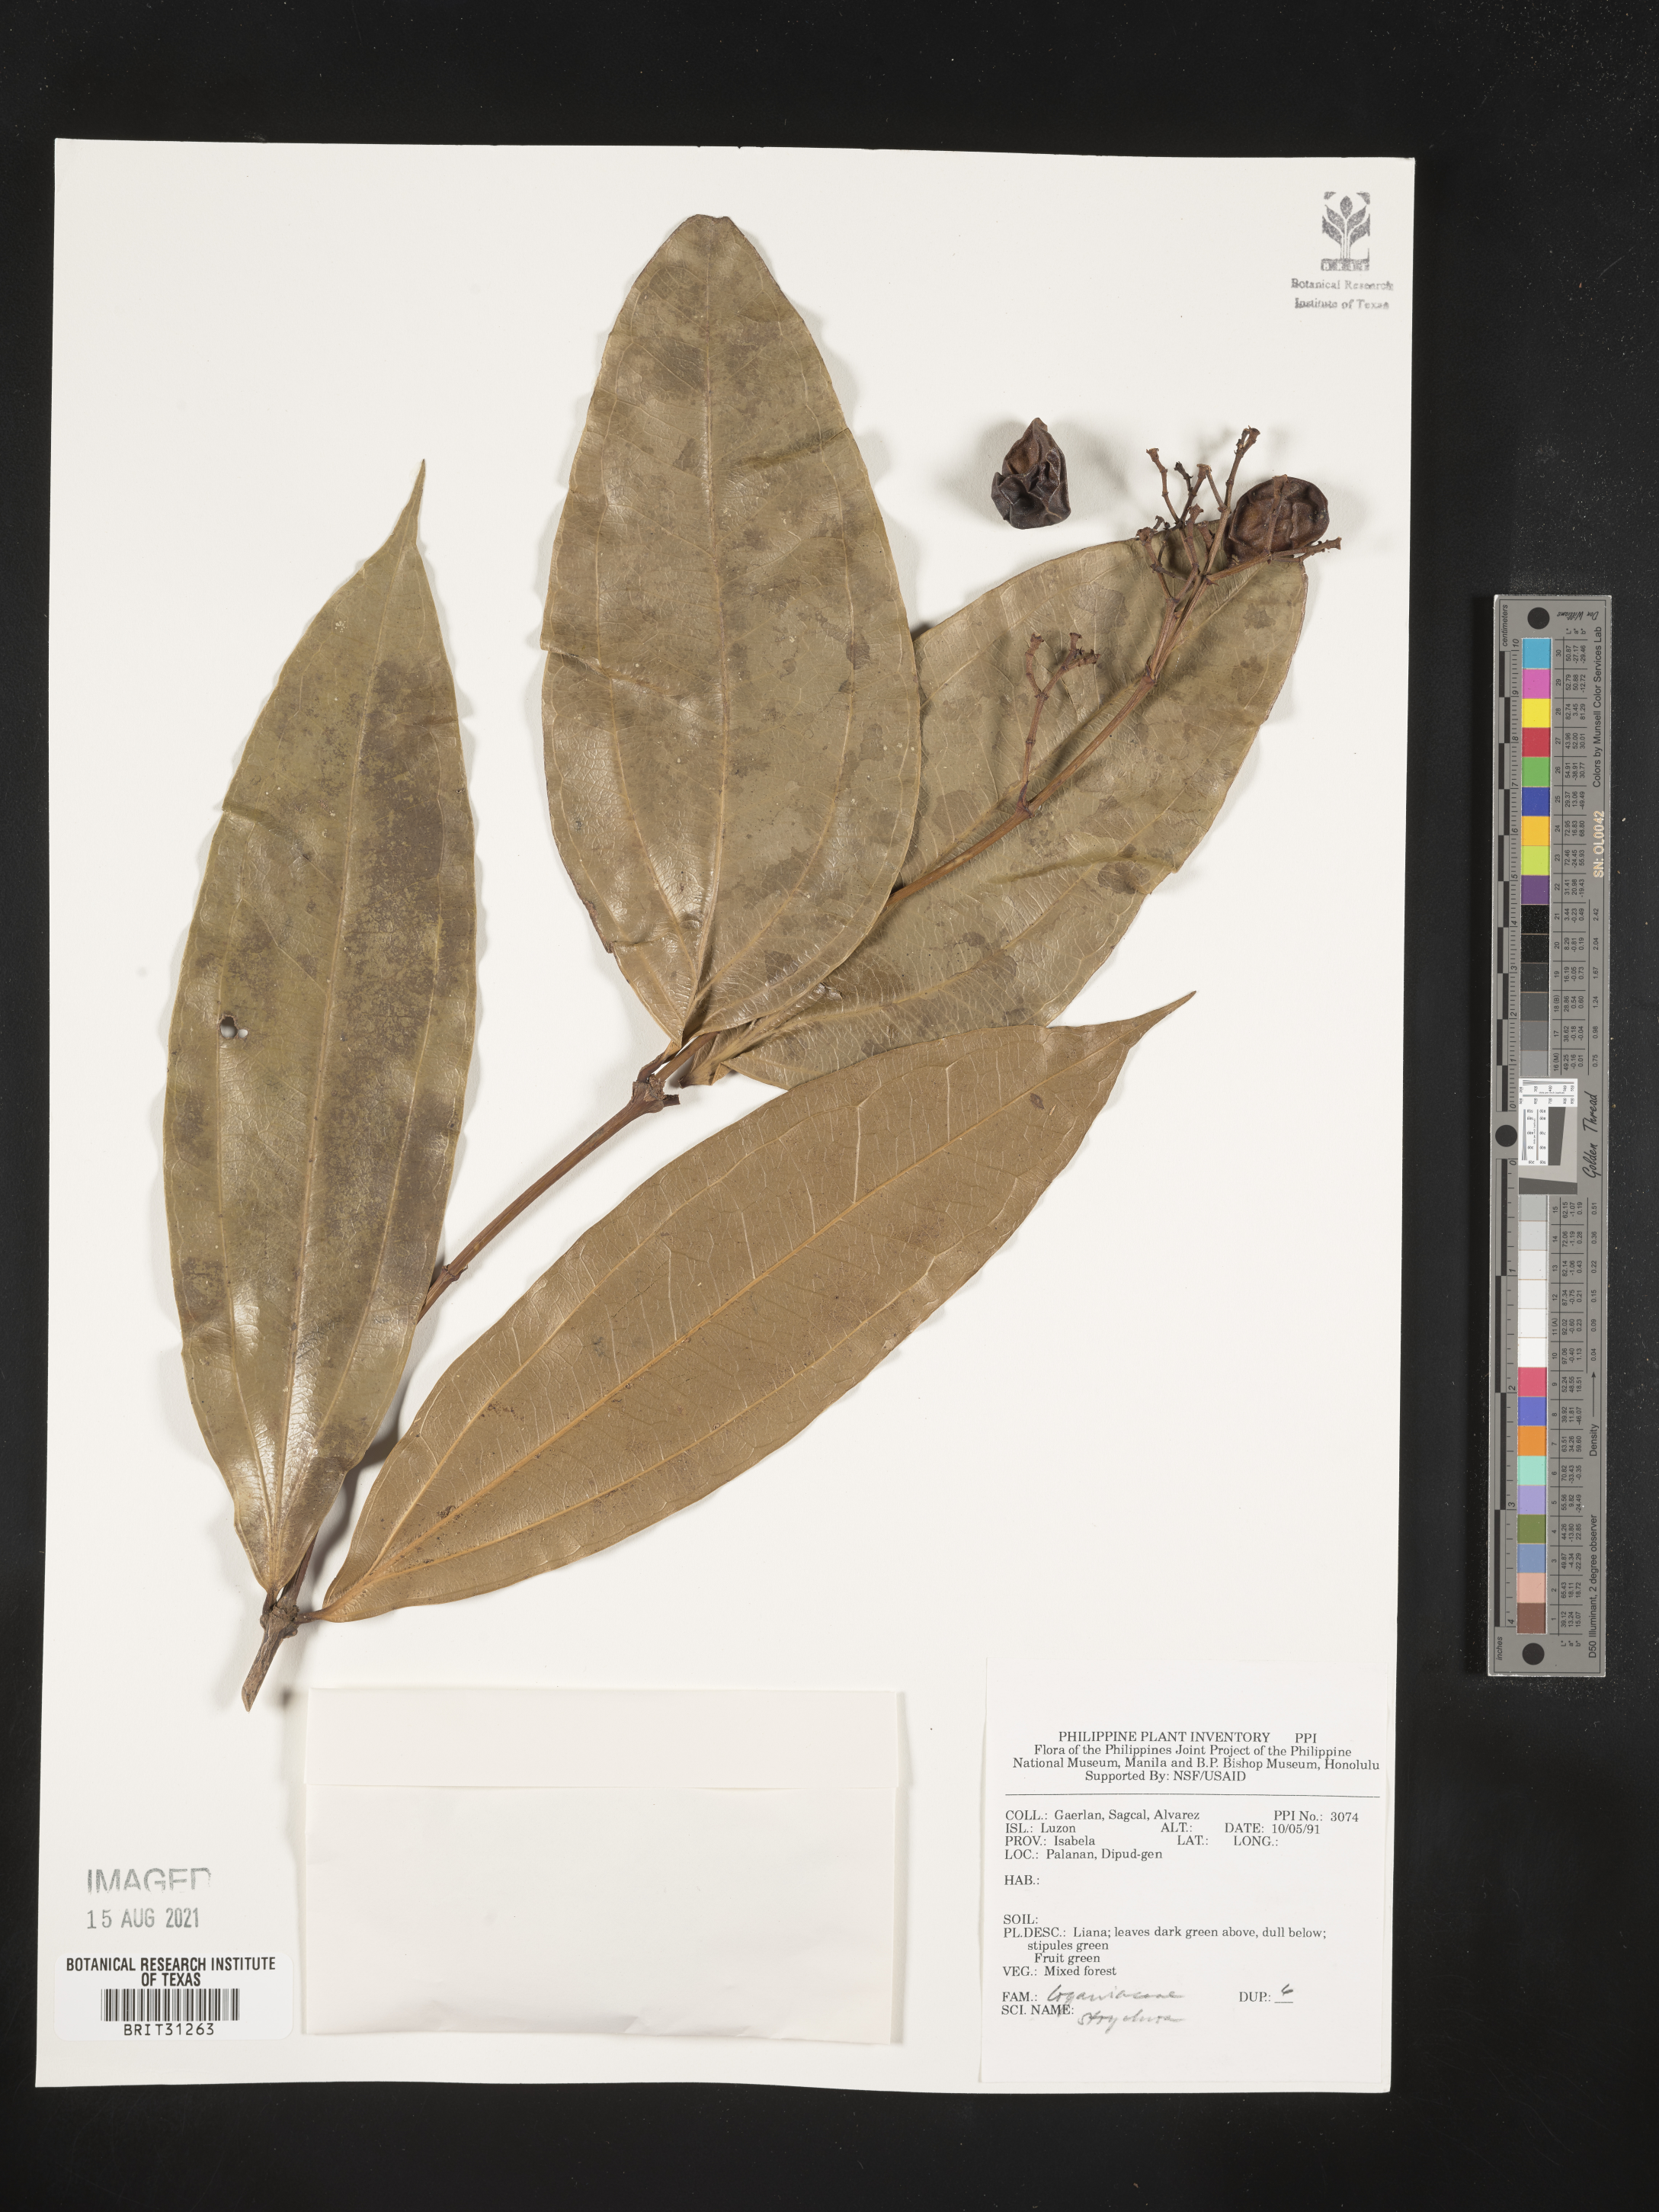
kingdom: Plantae
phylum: Tracheophyta
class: Magnoliopsida
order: Gentianales
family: Loganiaceae
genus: Strychnos
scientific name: Strychnos
